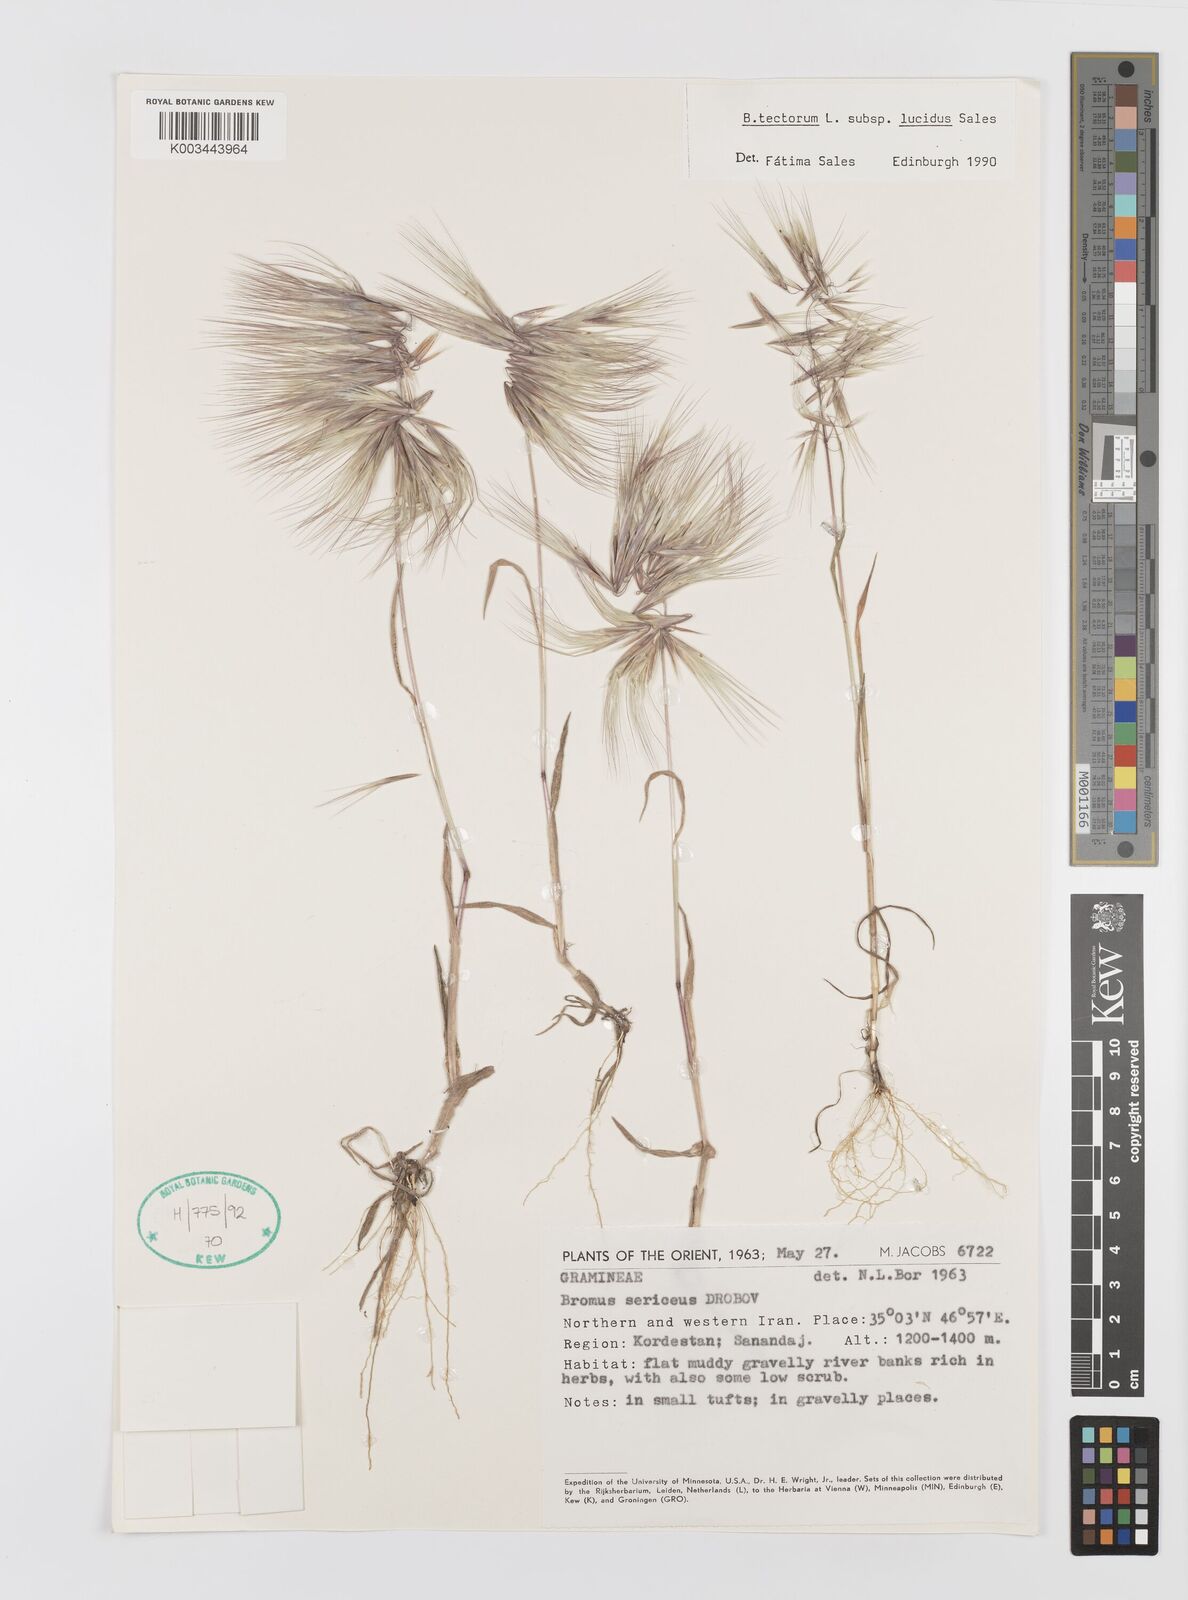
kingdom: Plantae
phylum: Tracheophyta
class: Liliopsida
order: Poales
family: Poaceae
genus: Bromus
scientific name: Bromus moeszii
